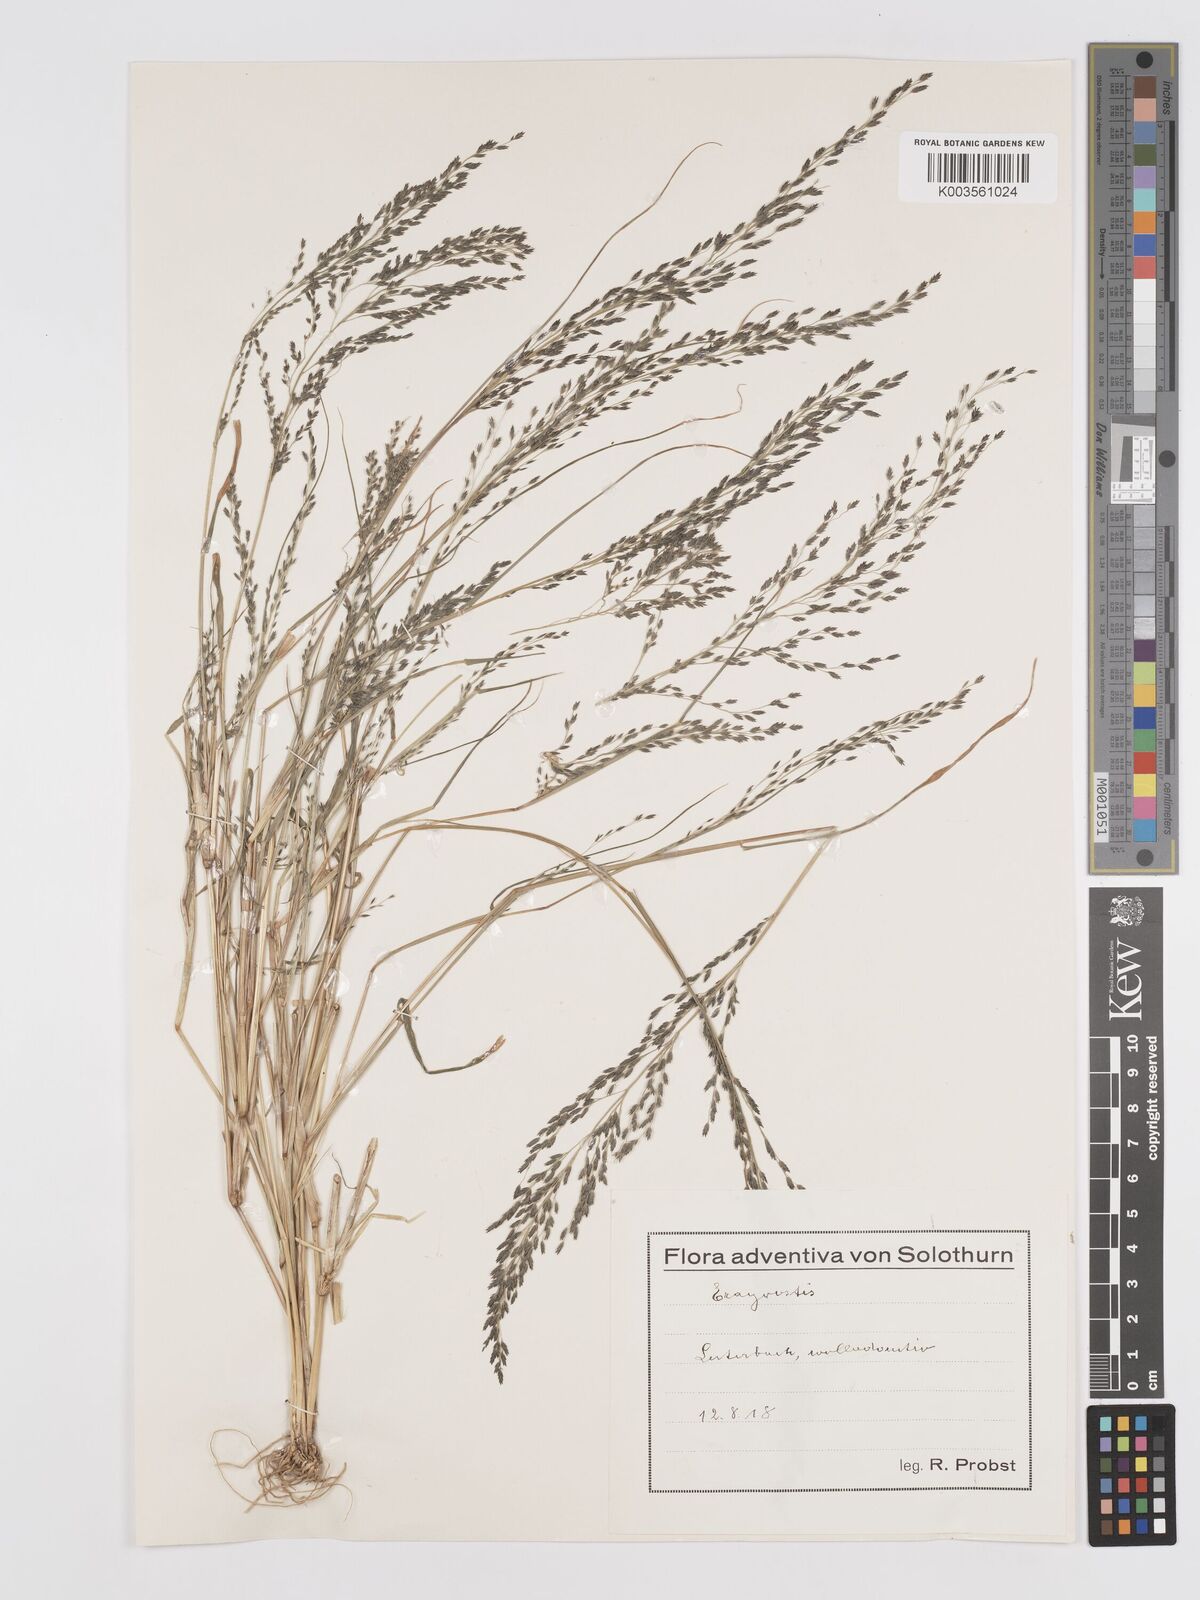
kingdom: Plantae
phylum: Tracheophyta
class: Liliopsida
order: Poales
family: Poaceae
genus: Eragrostis
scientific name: Eragrostis
